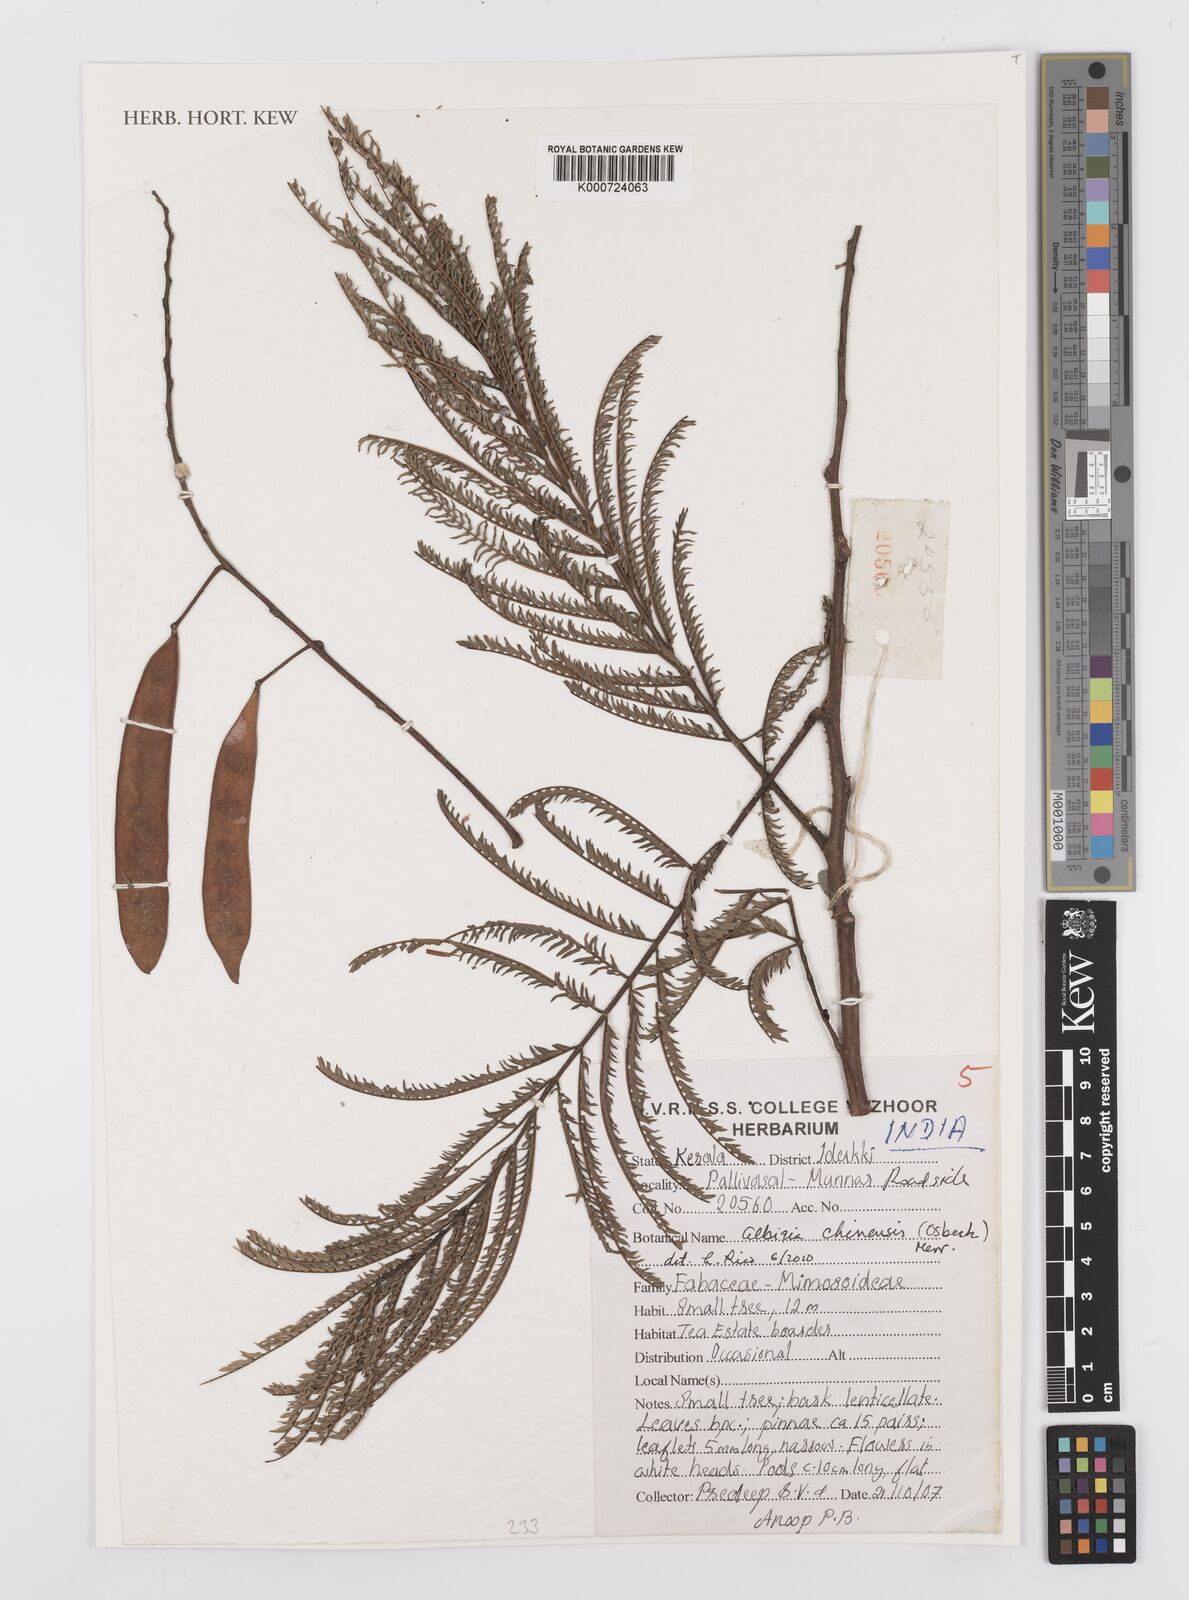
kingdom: Plantae
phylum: Tracheophyta
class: Magnoliopsida
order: Fabales
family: Fabaceae
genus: Albizia
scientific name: Albizia chinensis
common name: Chinese albizia
